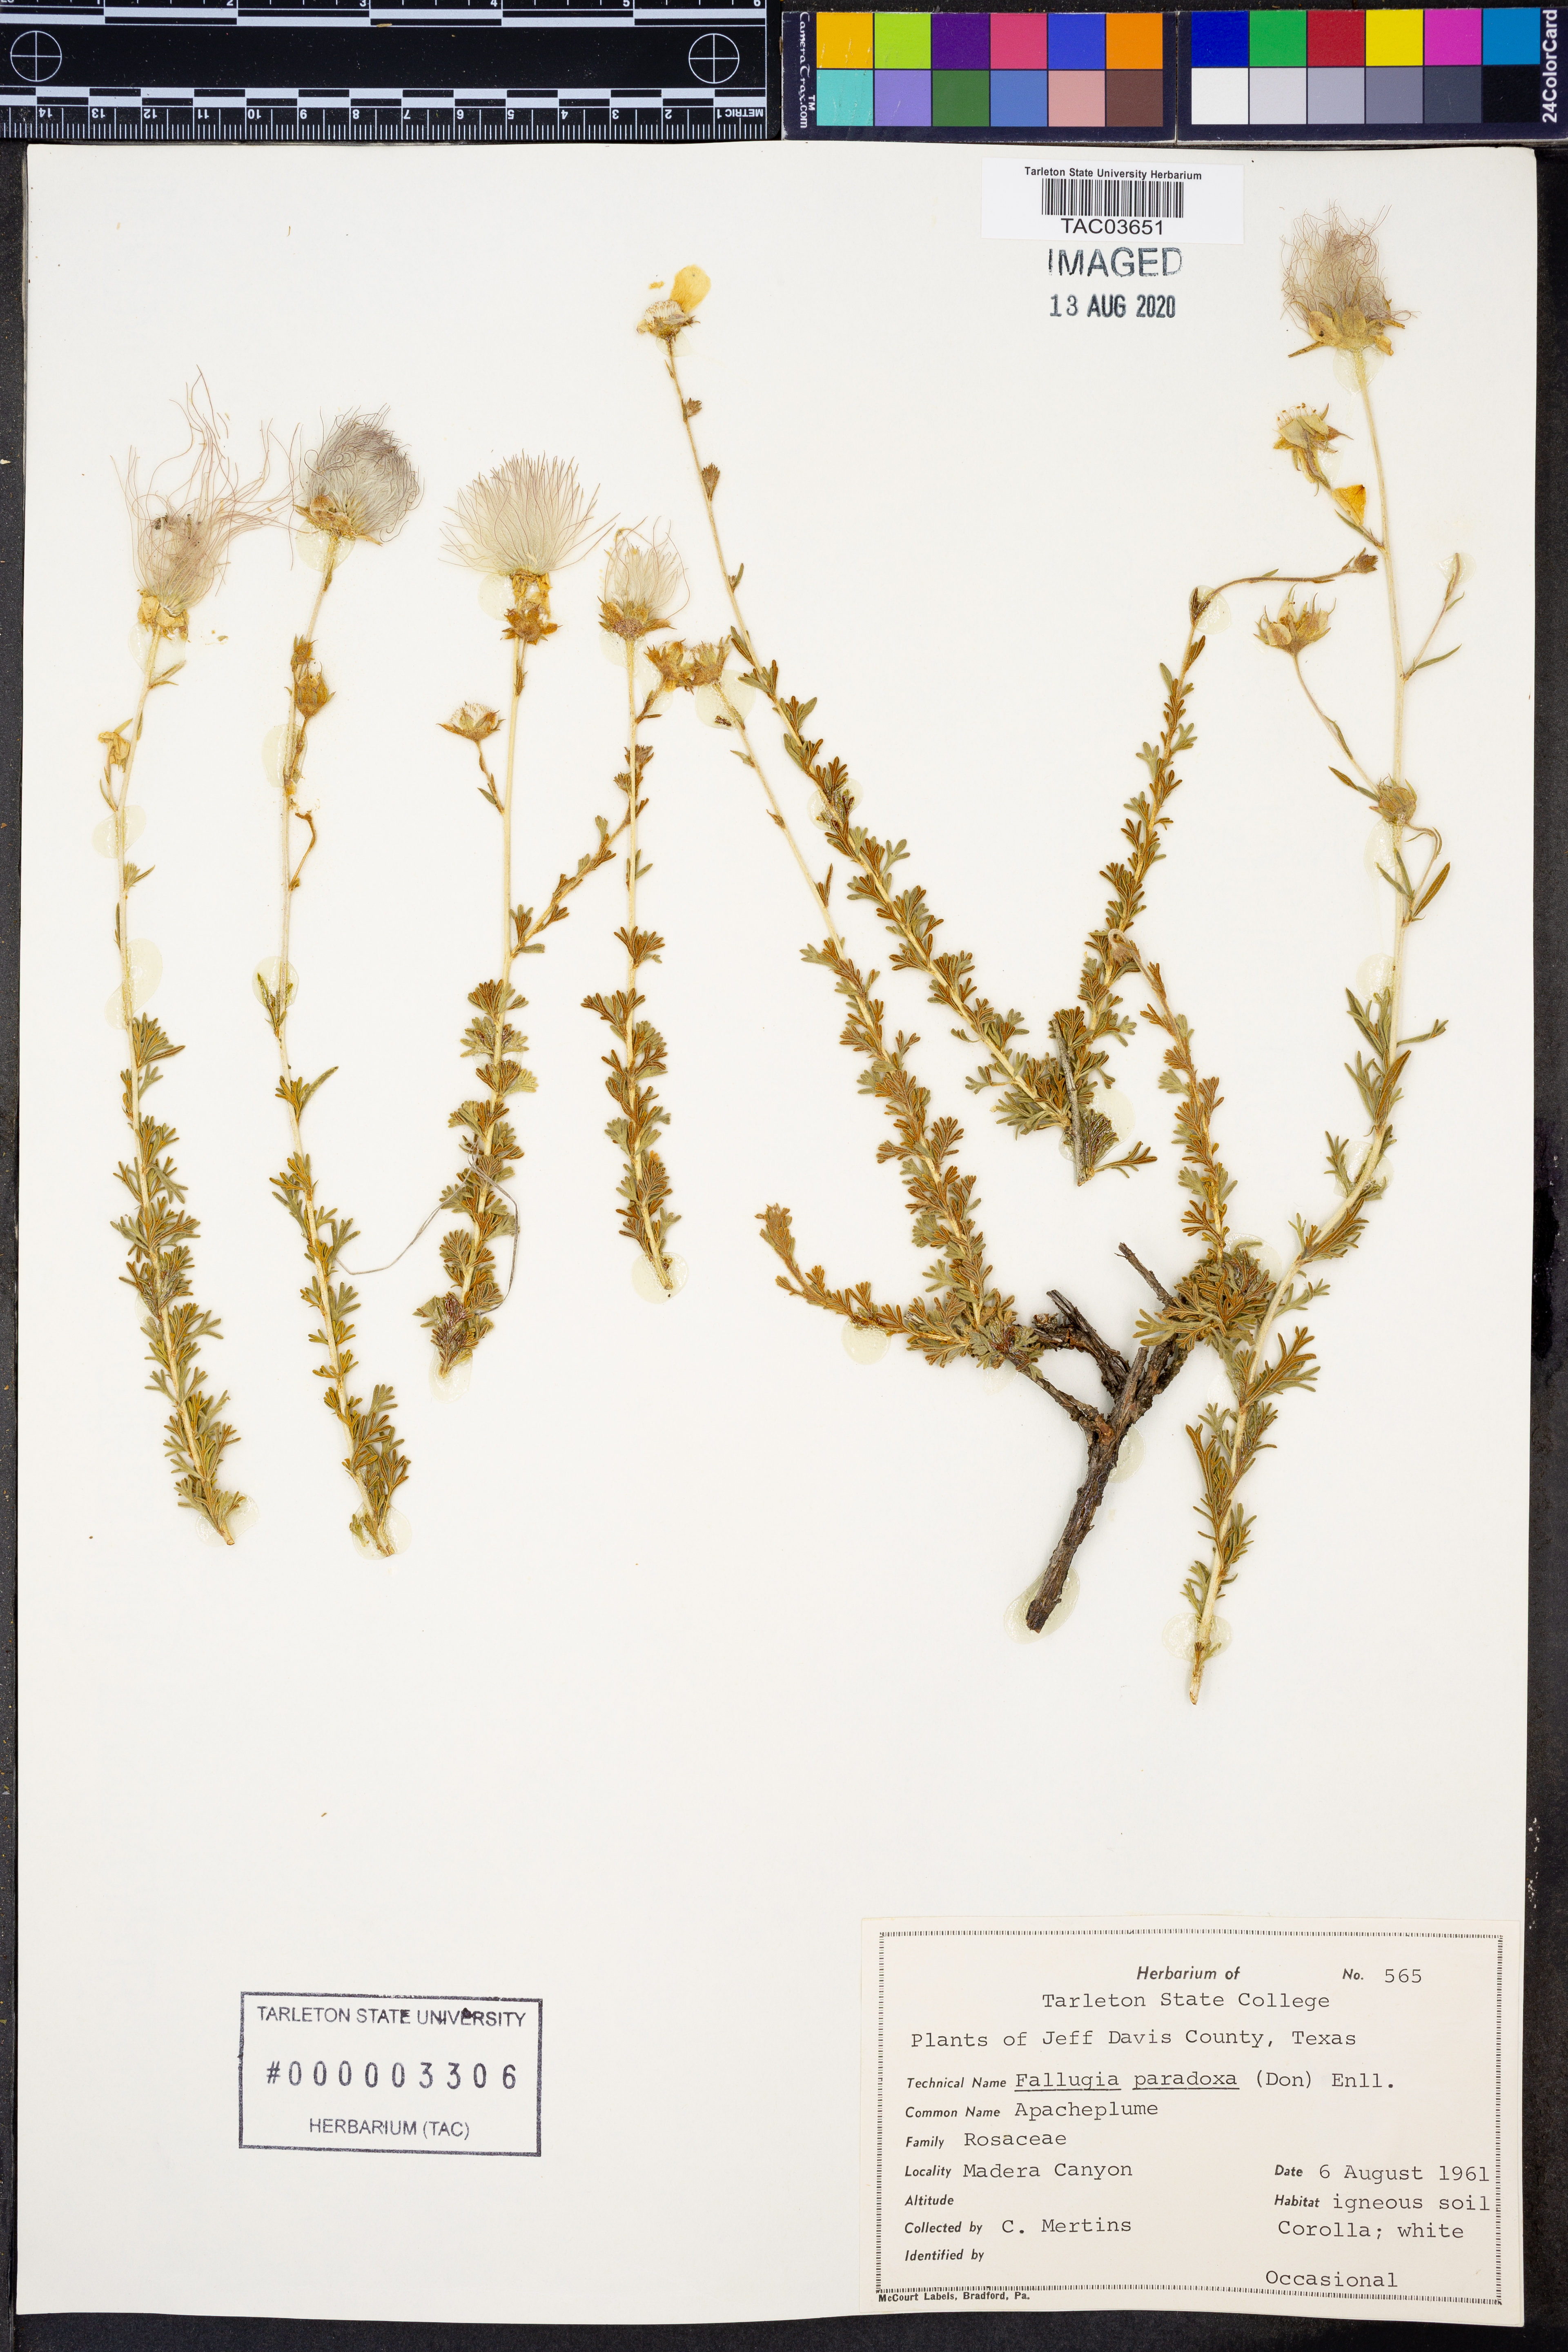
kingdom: Plantae
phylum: Tracheophyta
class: Magnoliopsida
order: Rosales
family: Rosaceae
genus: Fallugia
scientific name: Fallugia paradoxa
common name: Apache-plume
